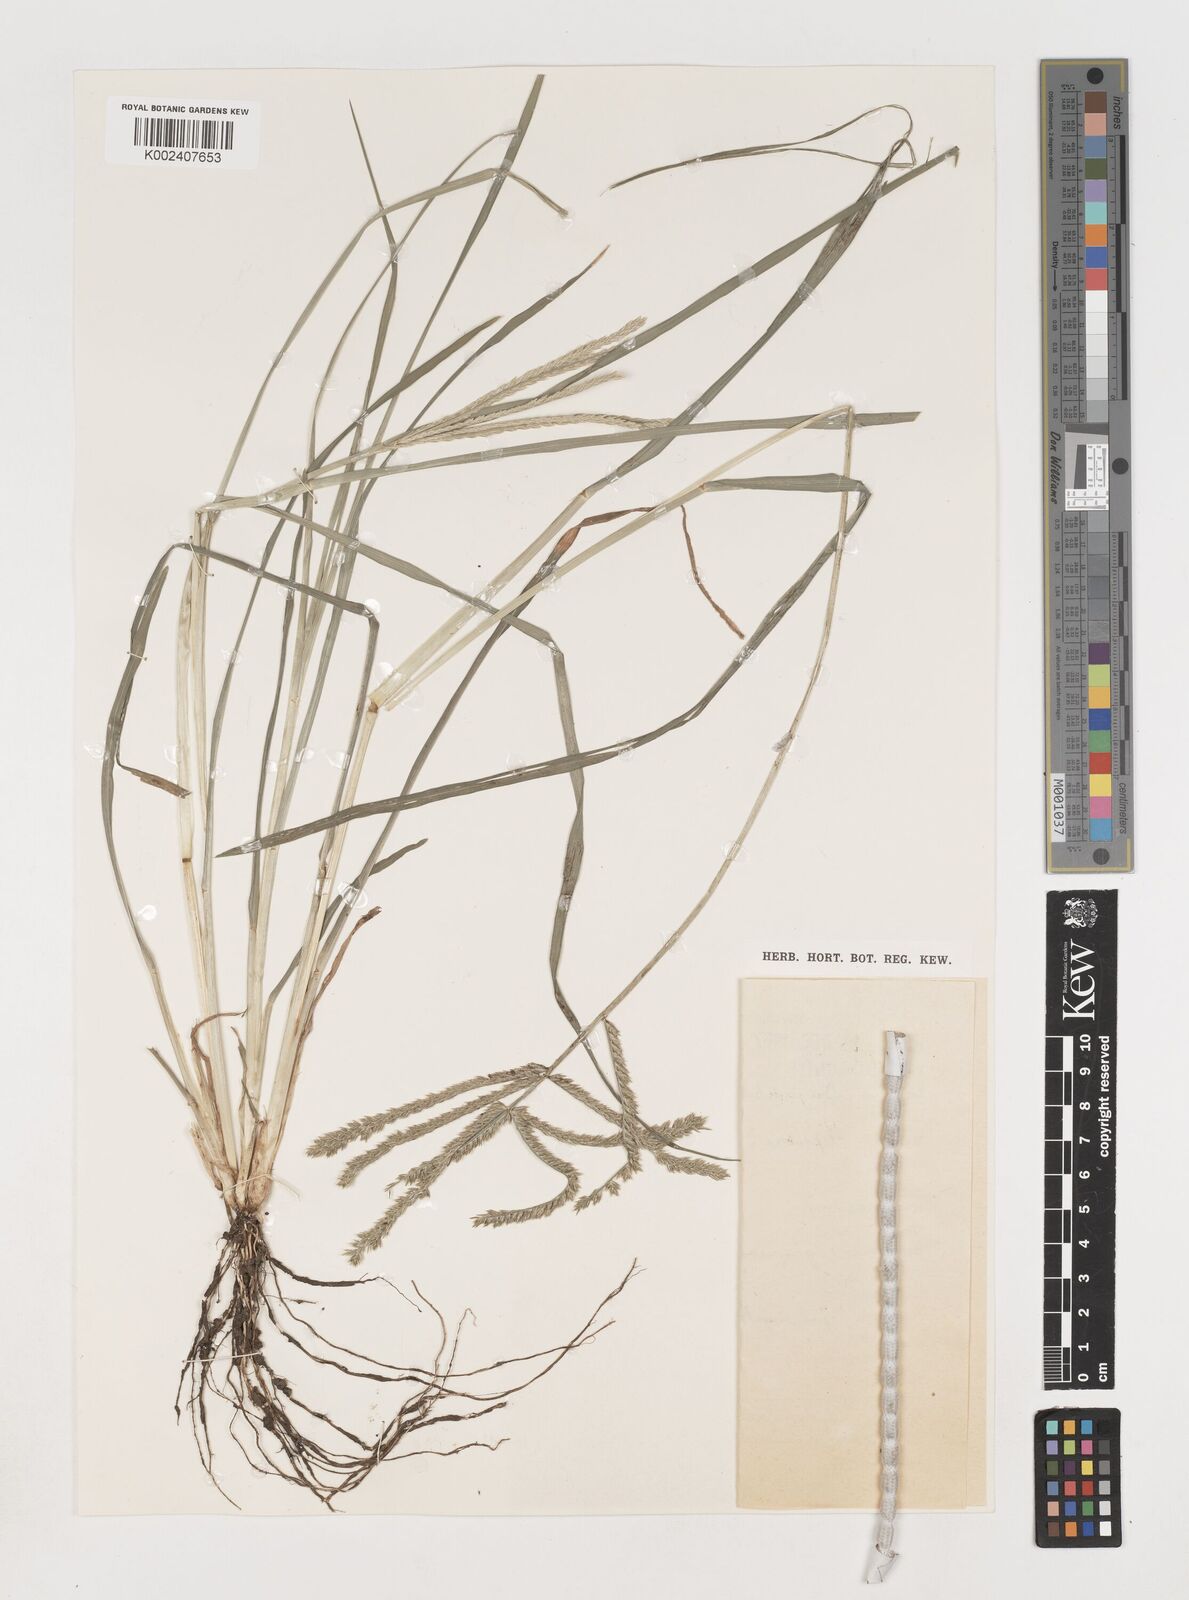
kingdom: Plantae
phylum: Tracheophyta
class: Liliopsida
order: Poales
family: Poaceae
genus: Eleusine
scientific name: Eleusine africana
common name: Wild african finger millet
